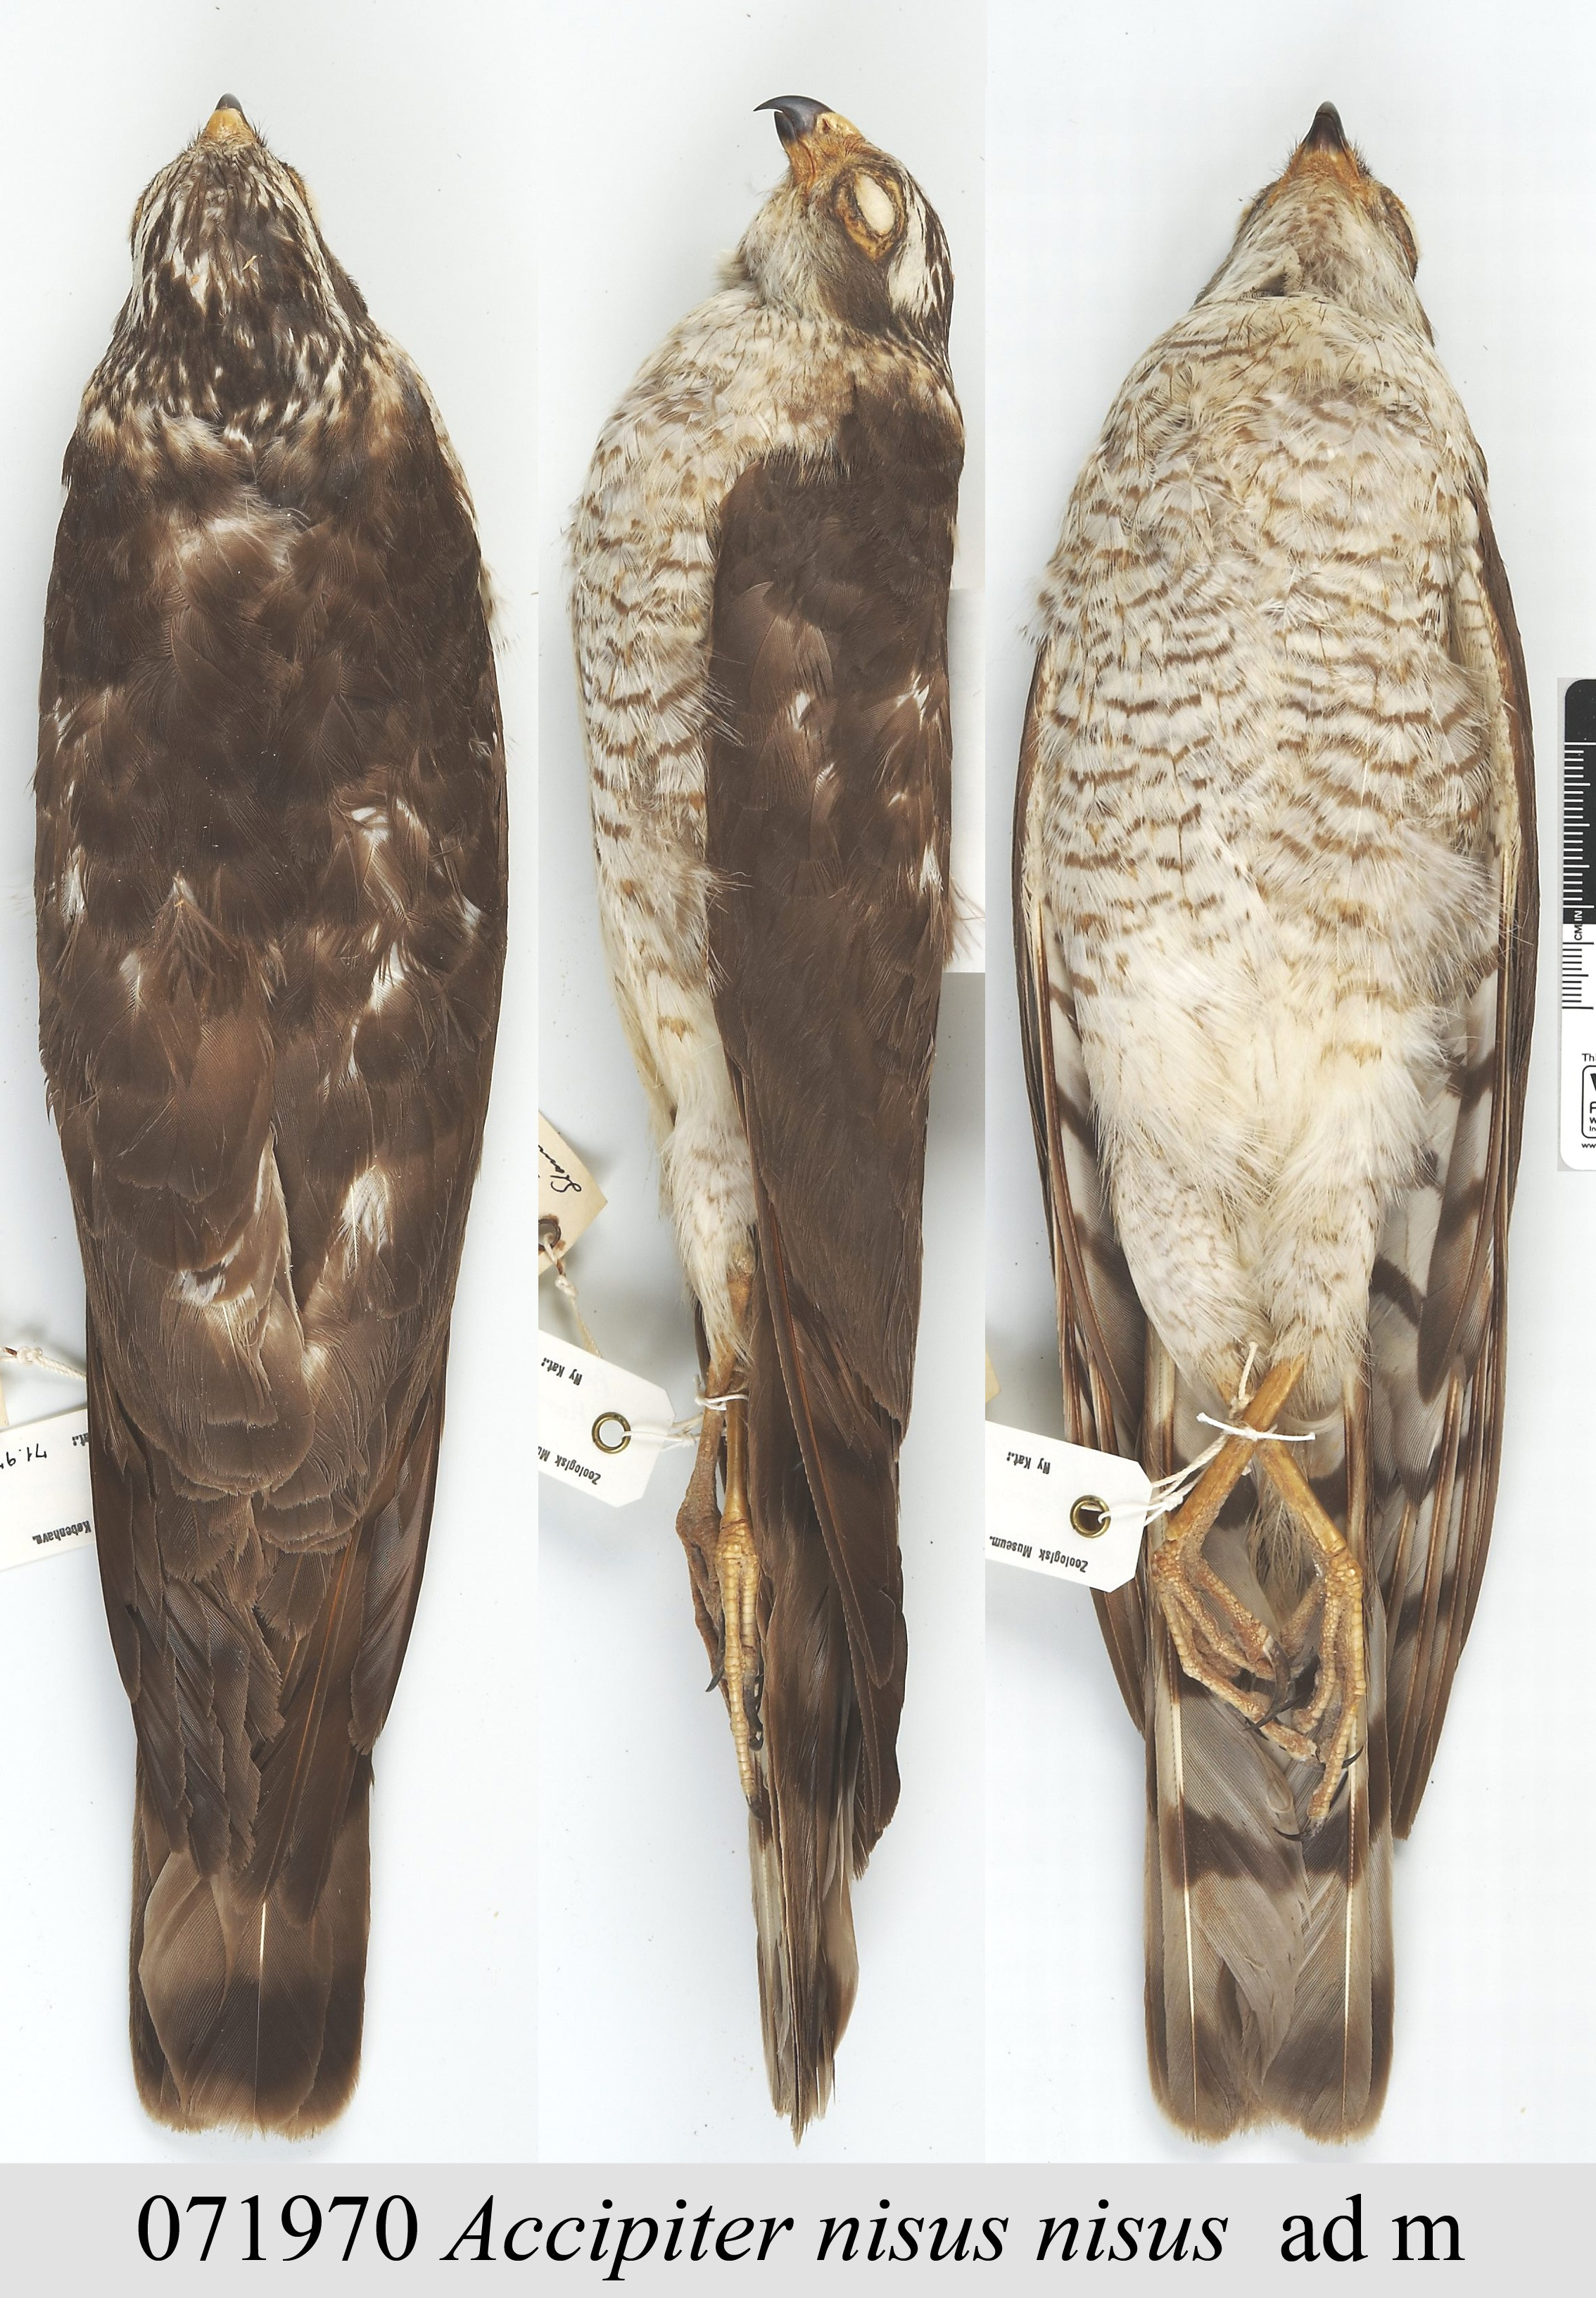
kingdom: Animalia
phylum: Chordata
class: Aves
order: Accipitriformes
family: Accipitridae
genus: Accipiter
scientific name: Accipiter nisus
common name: Eurasian sparrowhawk
